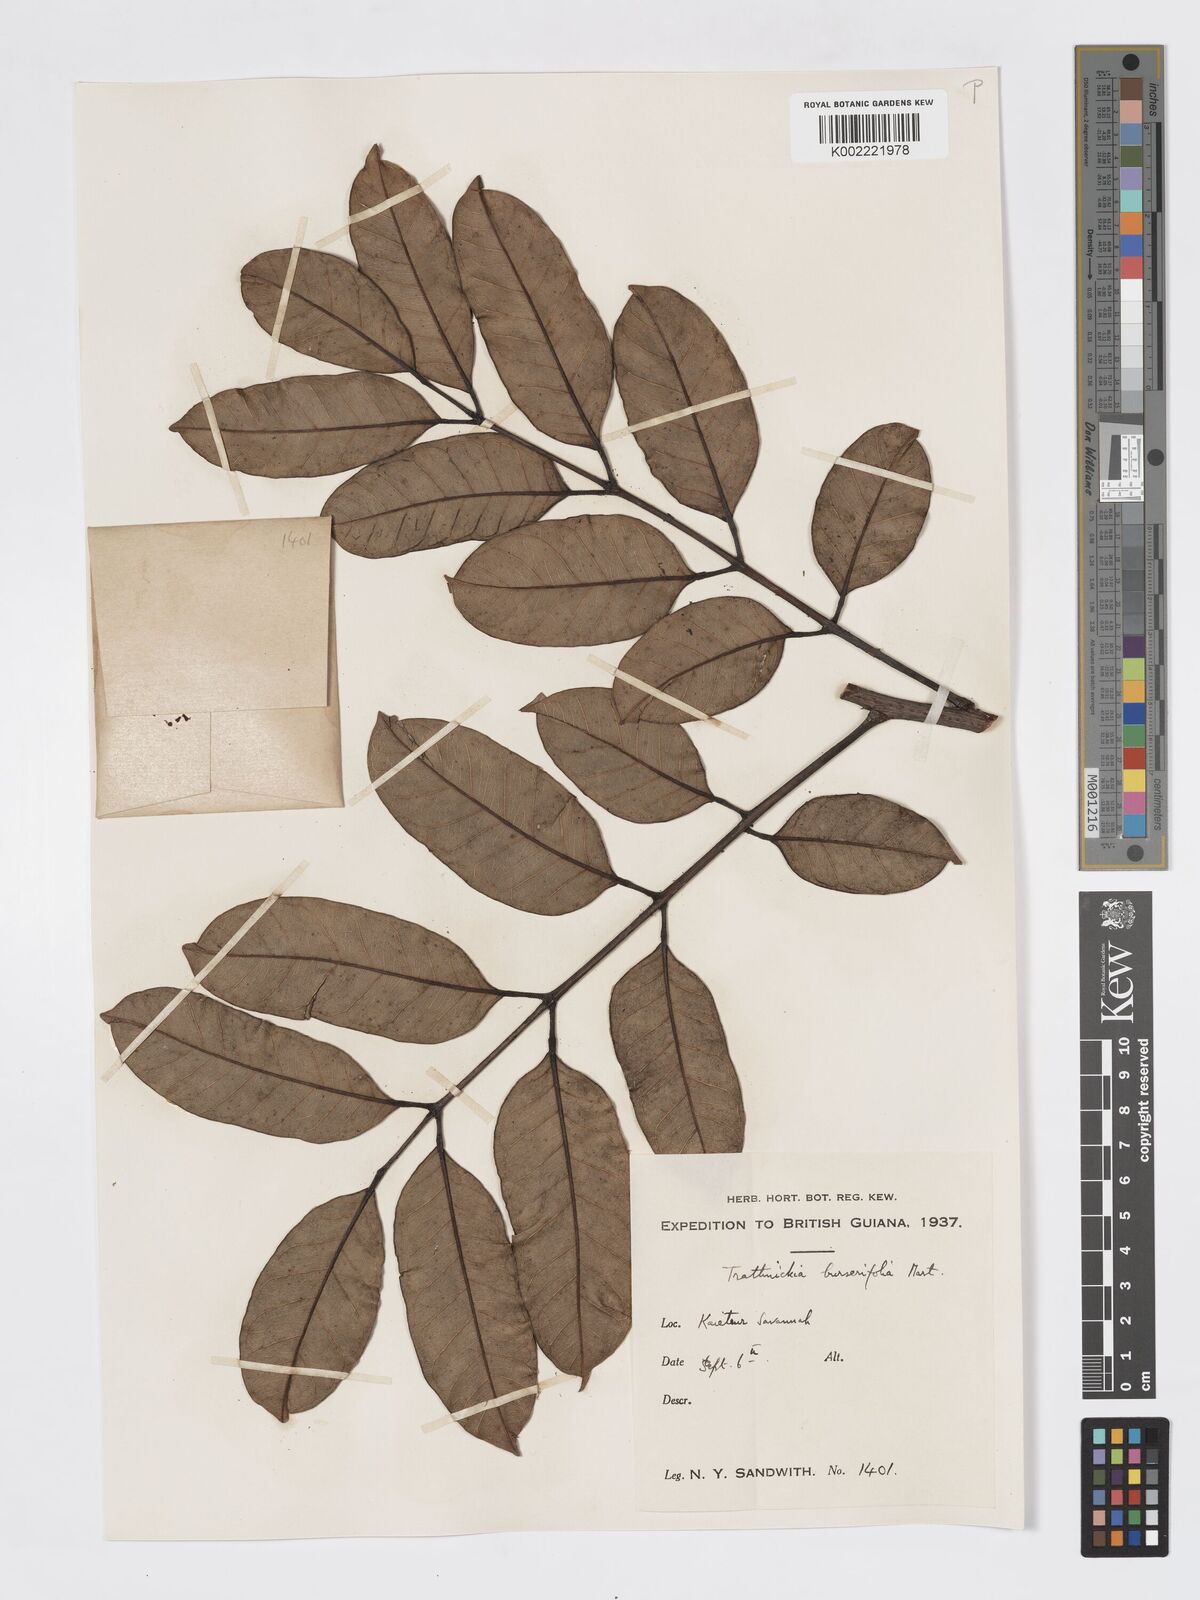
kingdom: Plantae
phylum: Tracheophyta
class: Magnoliopsida
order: Sapindales
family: Burseraceae
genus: Trattinnickia
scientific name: Trattinnickia burserifolia
